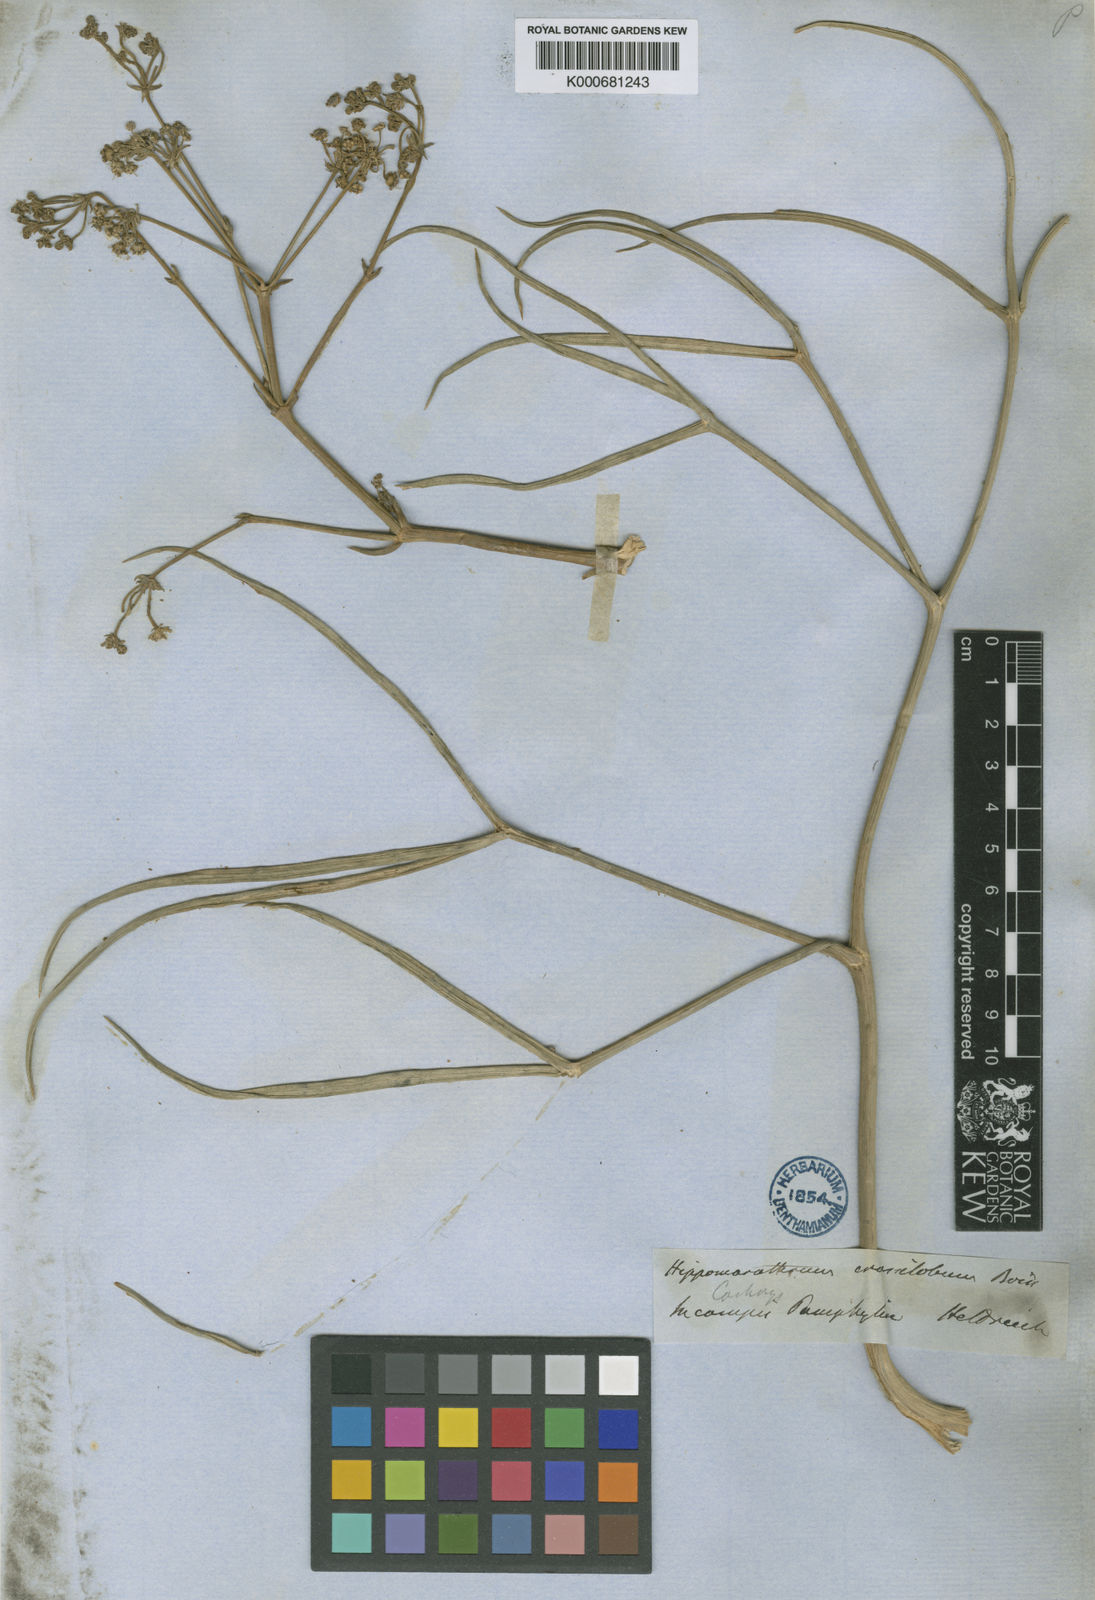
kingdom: Plantae
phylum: Tracheophyta
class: Magnoliopsida
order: Apiales
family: Apiaceae
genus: Cachrys
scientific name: Cachrys crassiloba
